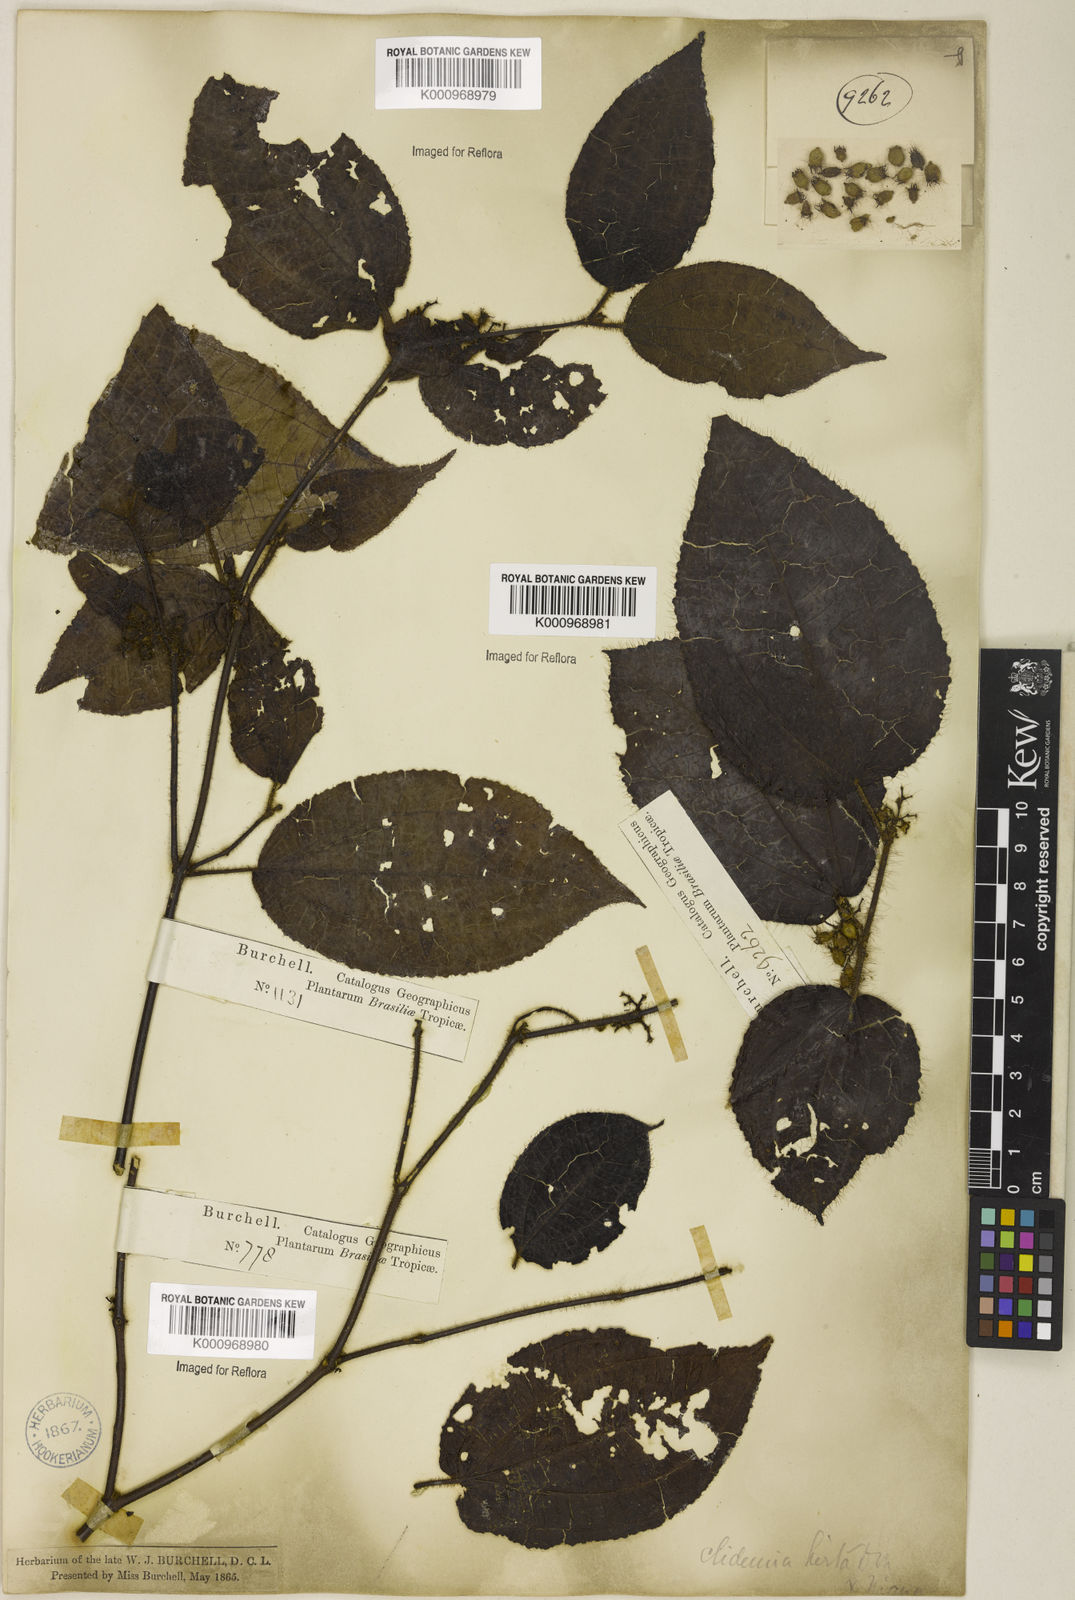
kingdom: Plantae
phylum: Tracheophyta
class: Magnoliopsida
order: Myrtales
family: Melastomataceae
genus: Miconia
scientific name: Miconia crenata
